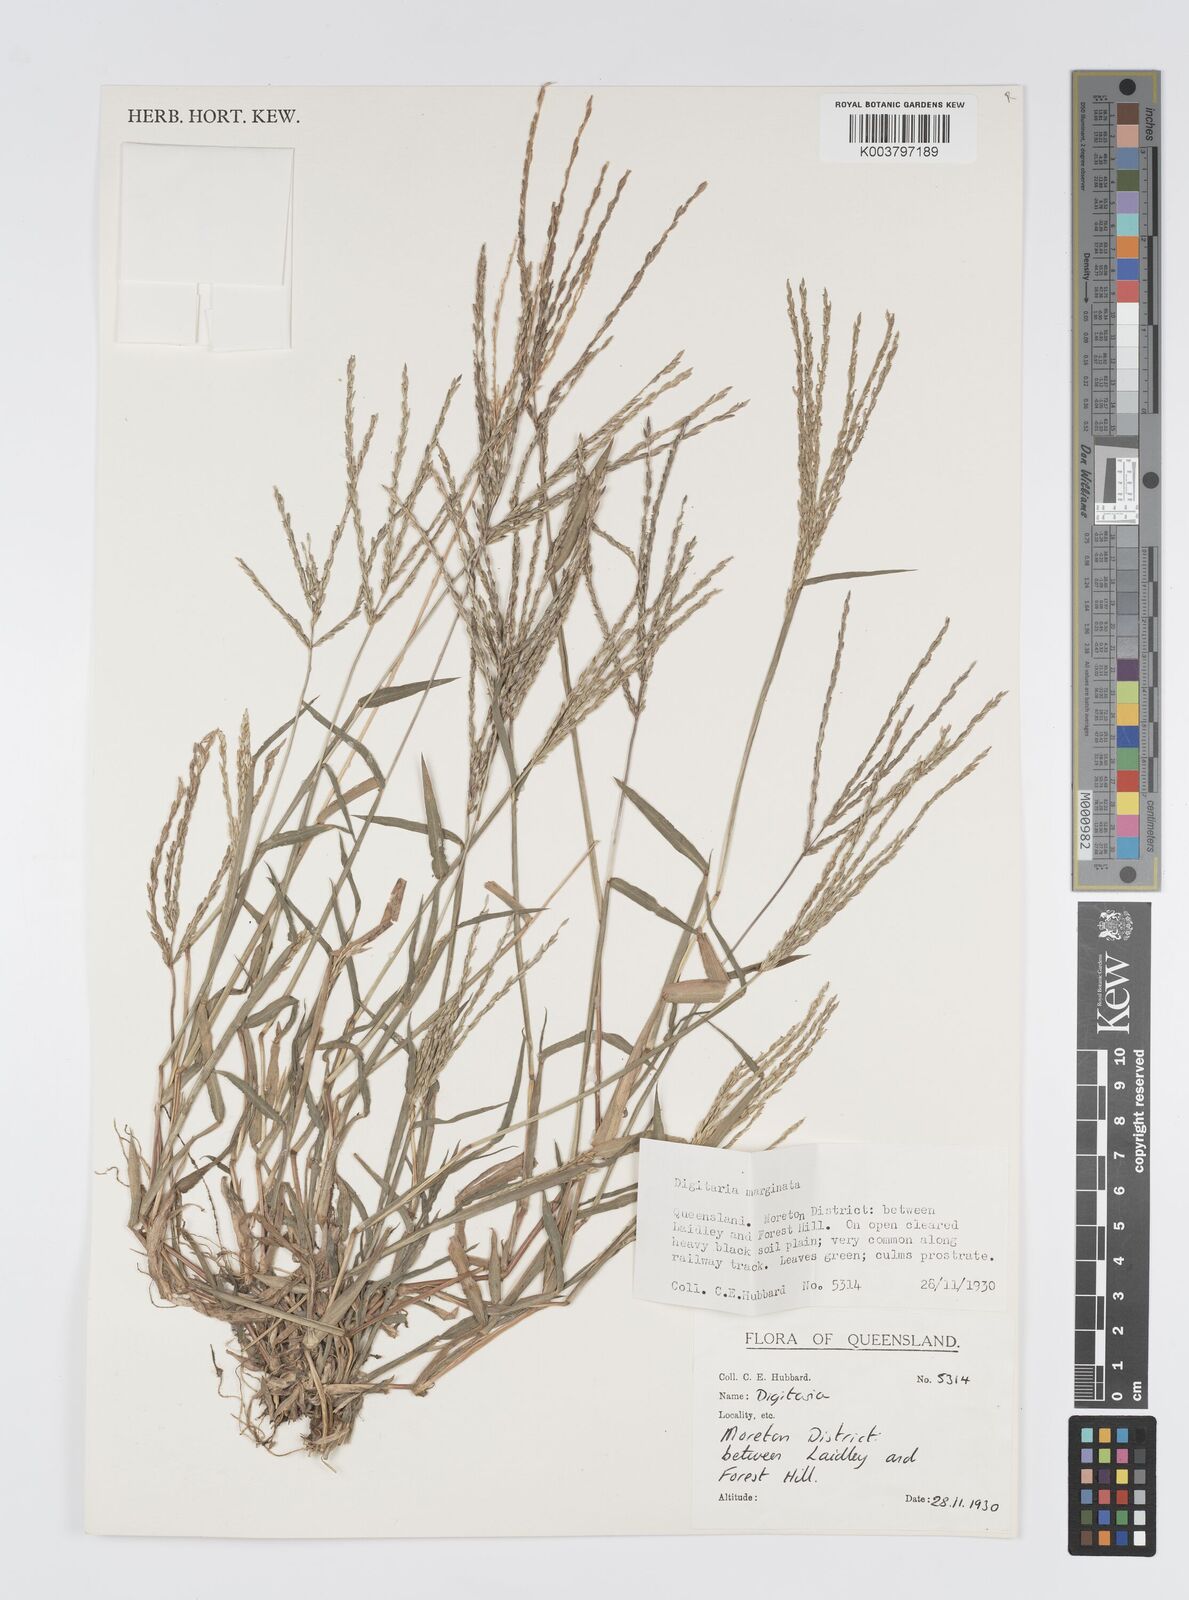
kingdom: Plantae
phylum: Tracheophyta
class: Liliopsida
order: Poales
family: Poaceae
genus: Digitaria
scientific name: Digitaria spec
